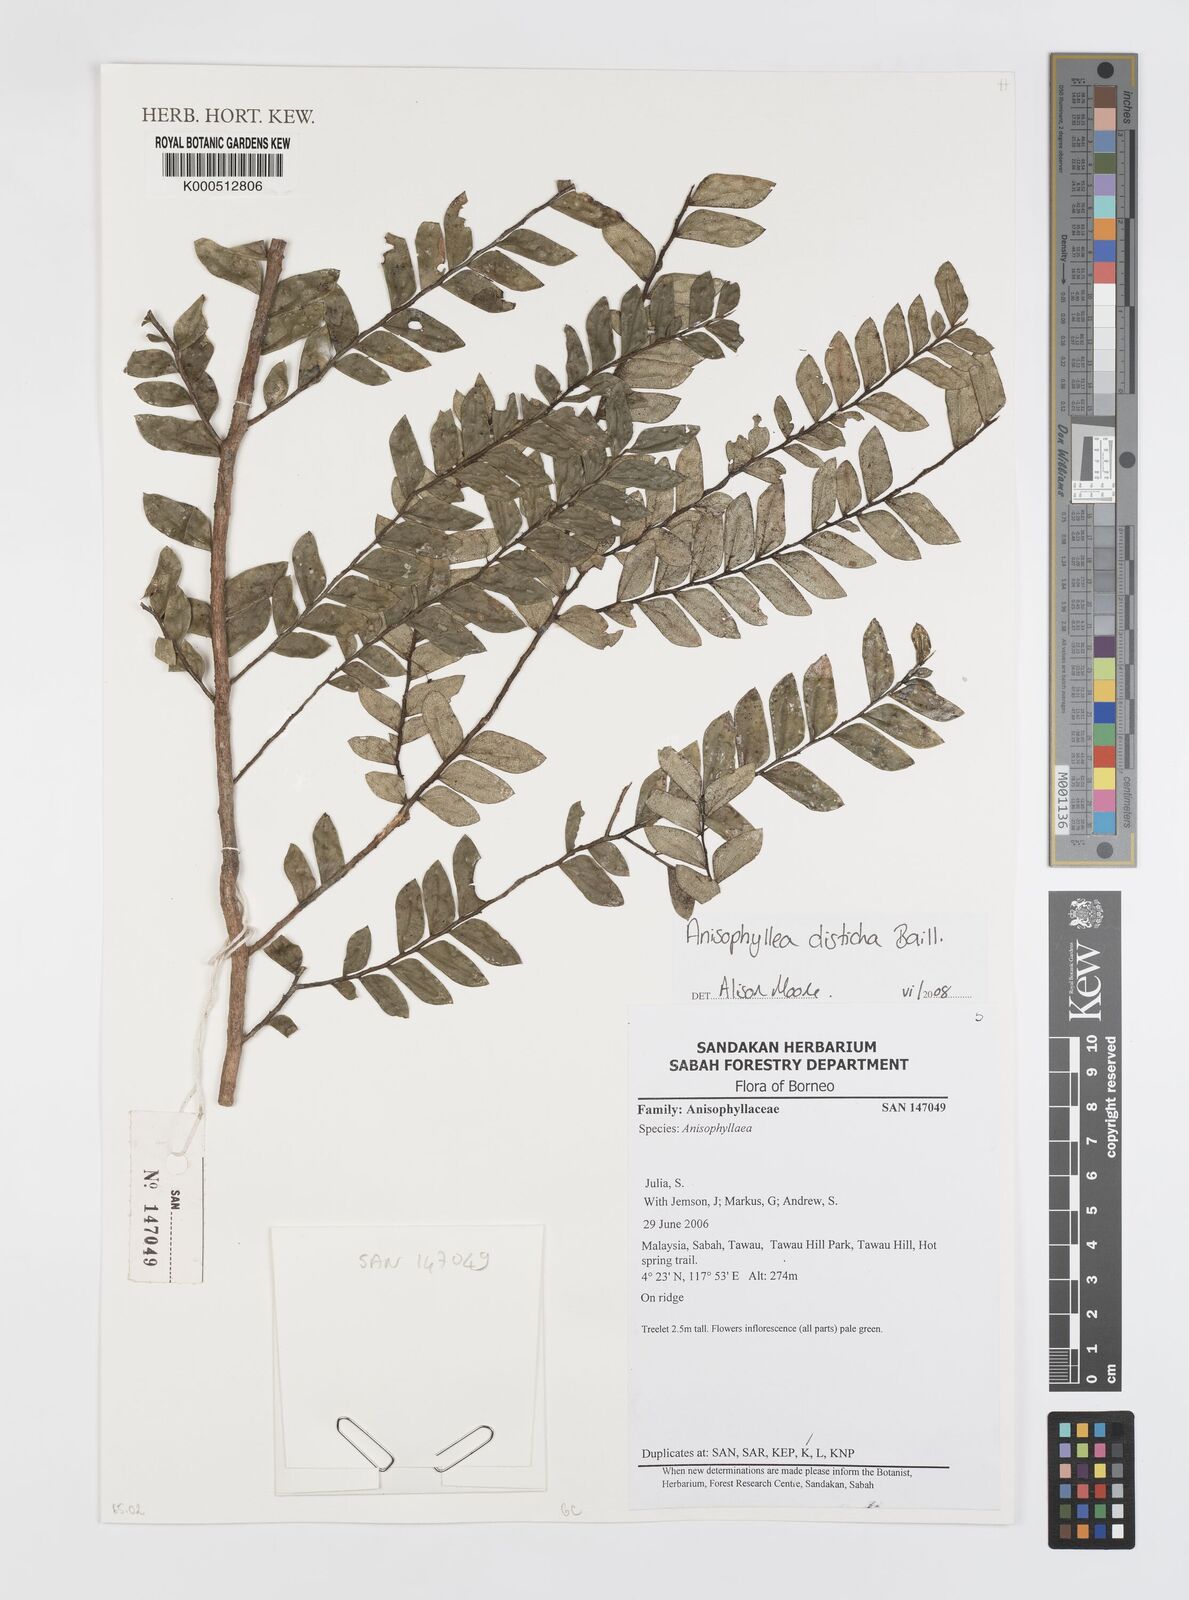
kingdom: Plantae
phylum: Tracheophyta
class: Magnoliopsida
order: Cucurbitales
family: Anisophylleaceae
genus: Anisophyllea
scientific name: Anisophyllea disticha
